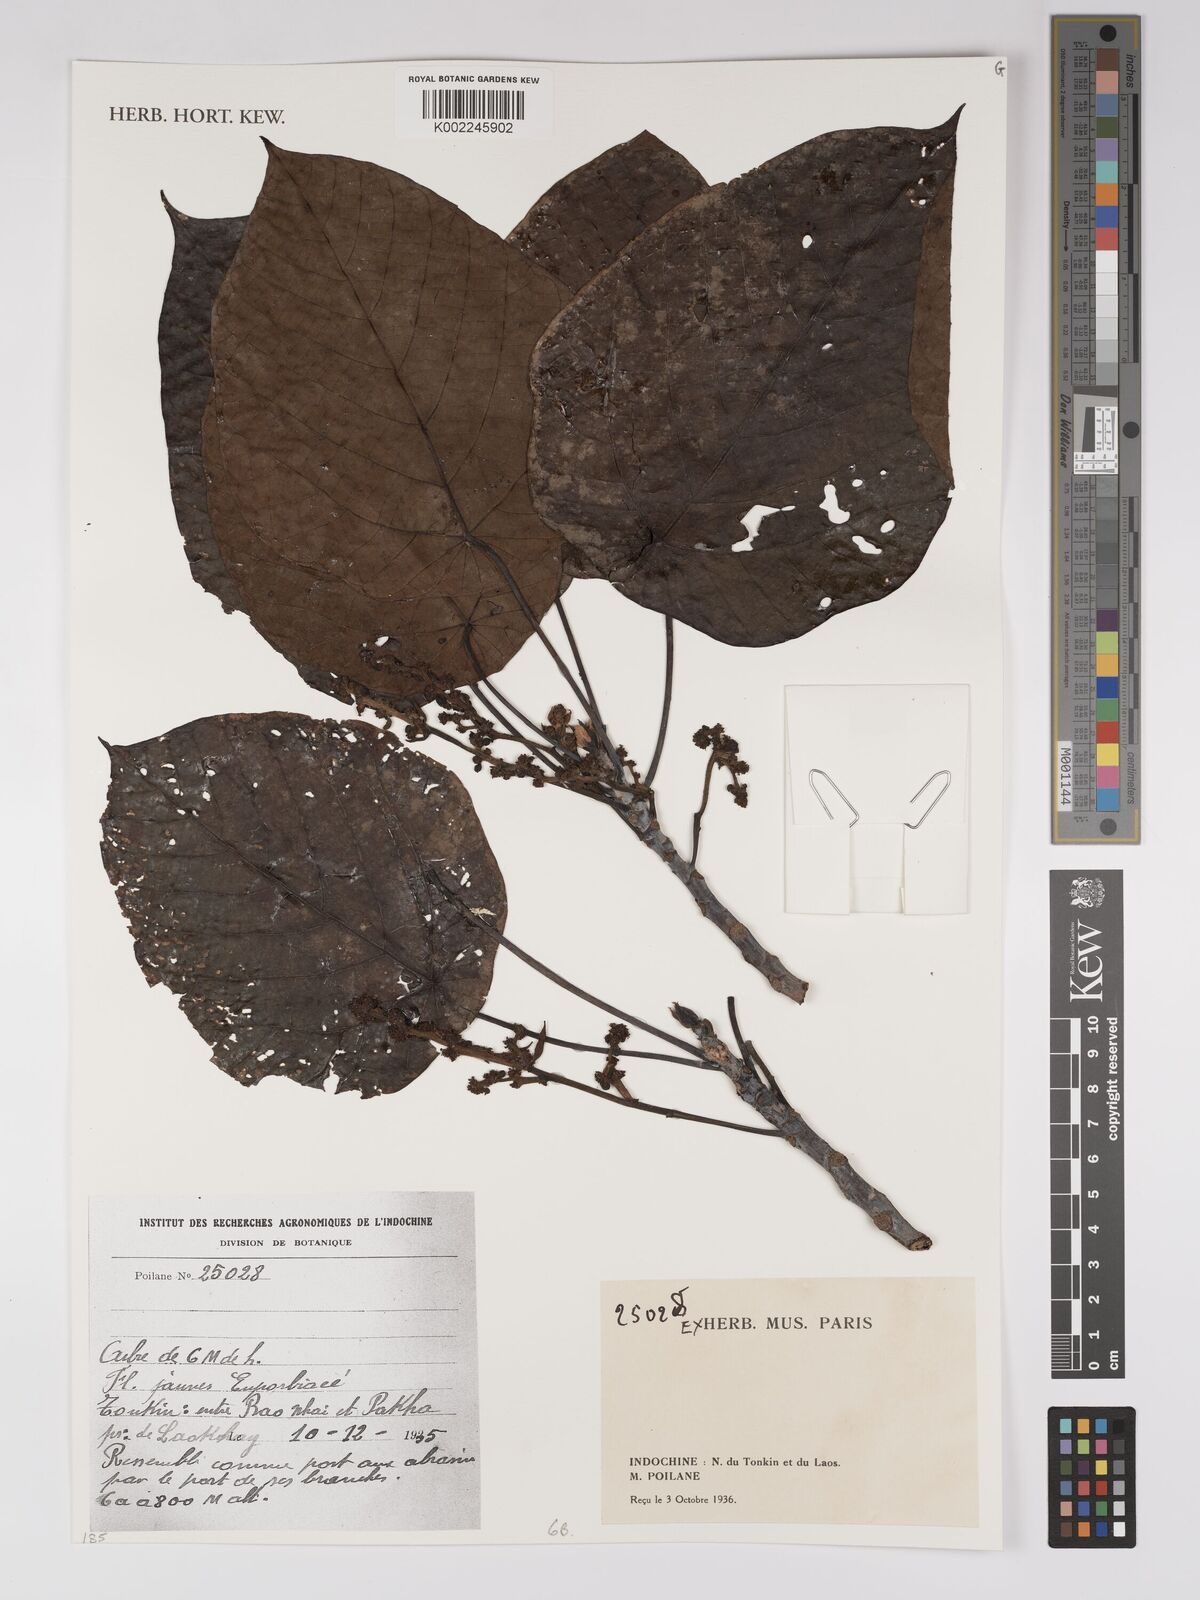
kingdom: Plantae
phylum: Tracheophyta
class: Magnoliopsida
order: Malpighiales
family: Euphorbiaceae
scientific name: Euphorbiaceae
